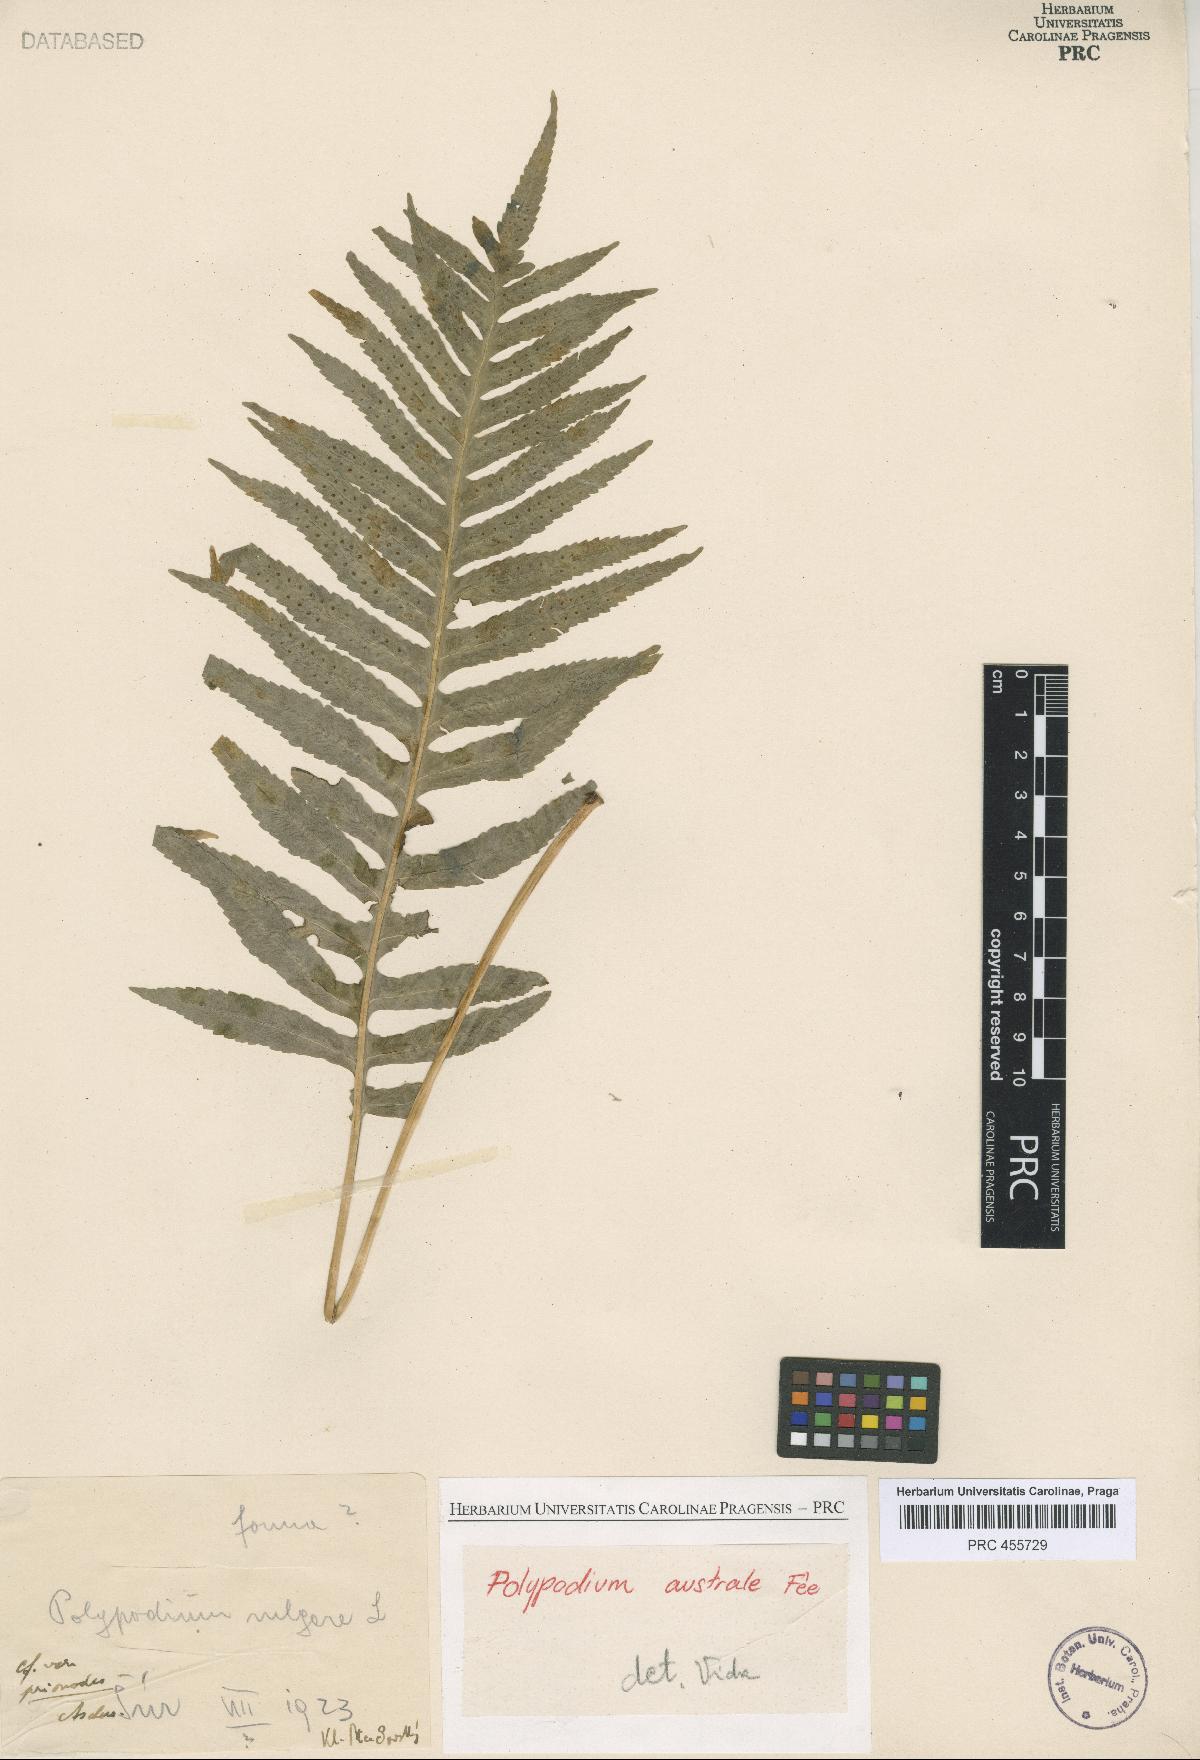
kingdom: Plantae
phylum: Tracheophyta
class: Polypodiopsida
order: Polypodiales
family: Polypodiaceae
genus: Polypodium
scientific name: Polypodium cambricum
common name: Southern polypody
